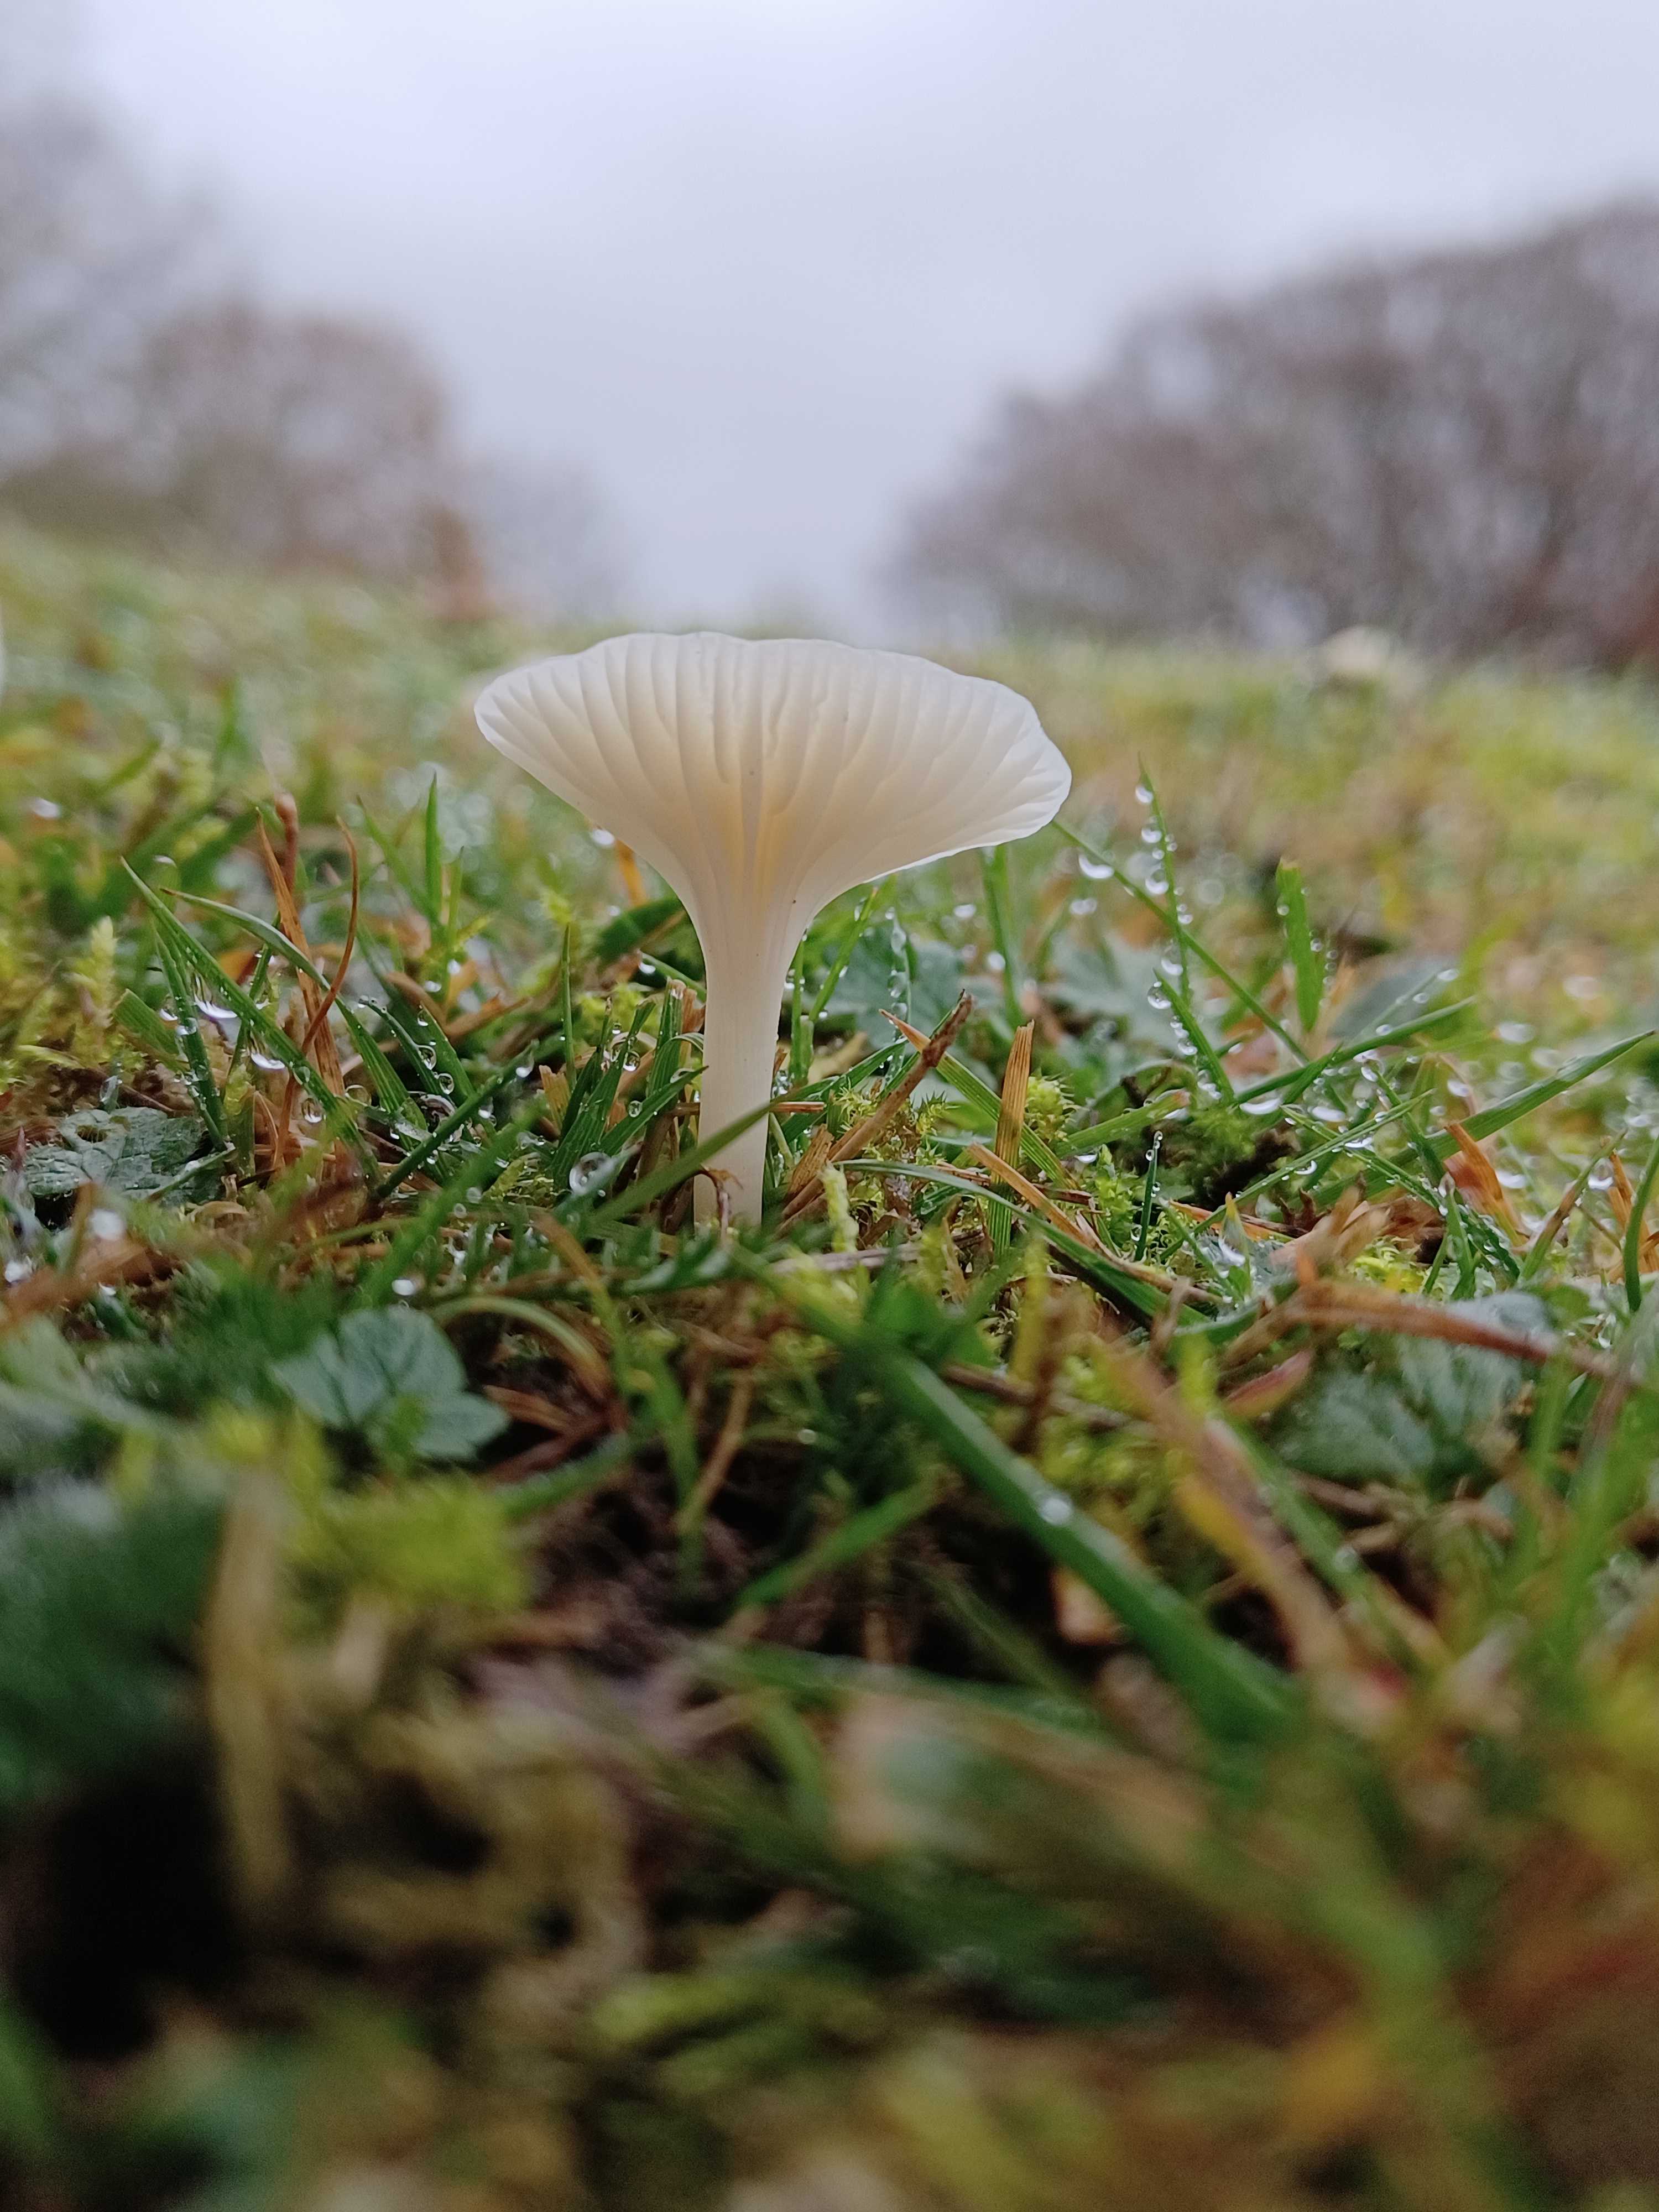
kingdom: Fungi
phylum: Basidiomycota
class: Agaricomycetes
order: Agaricales
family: Hygrophoraceae
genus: Cuphophyllus
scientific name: Cuphophyllus virgineus
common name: snehvid vokshat
